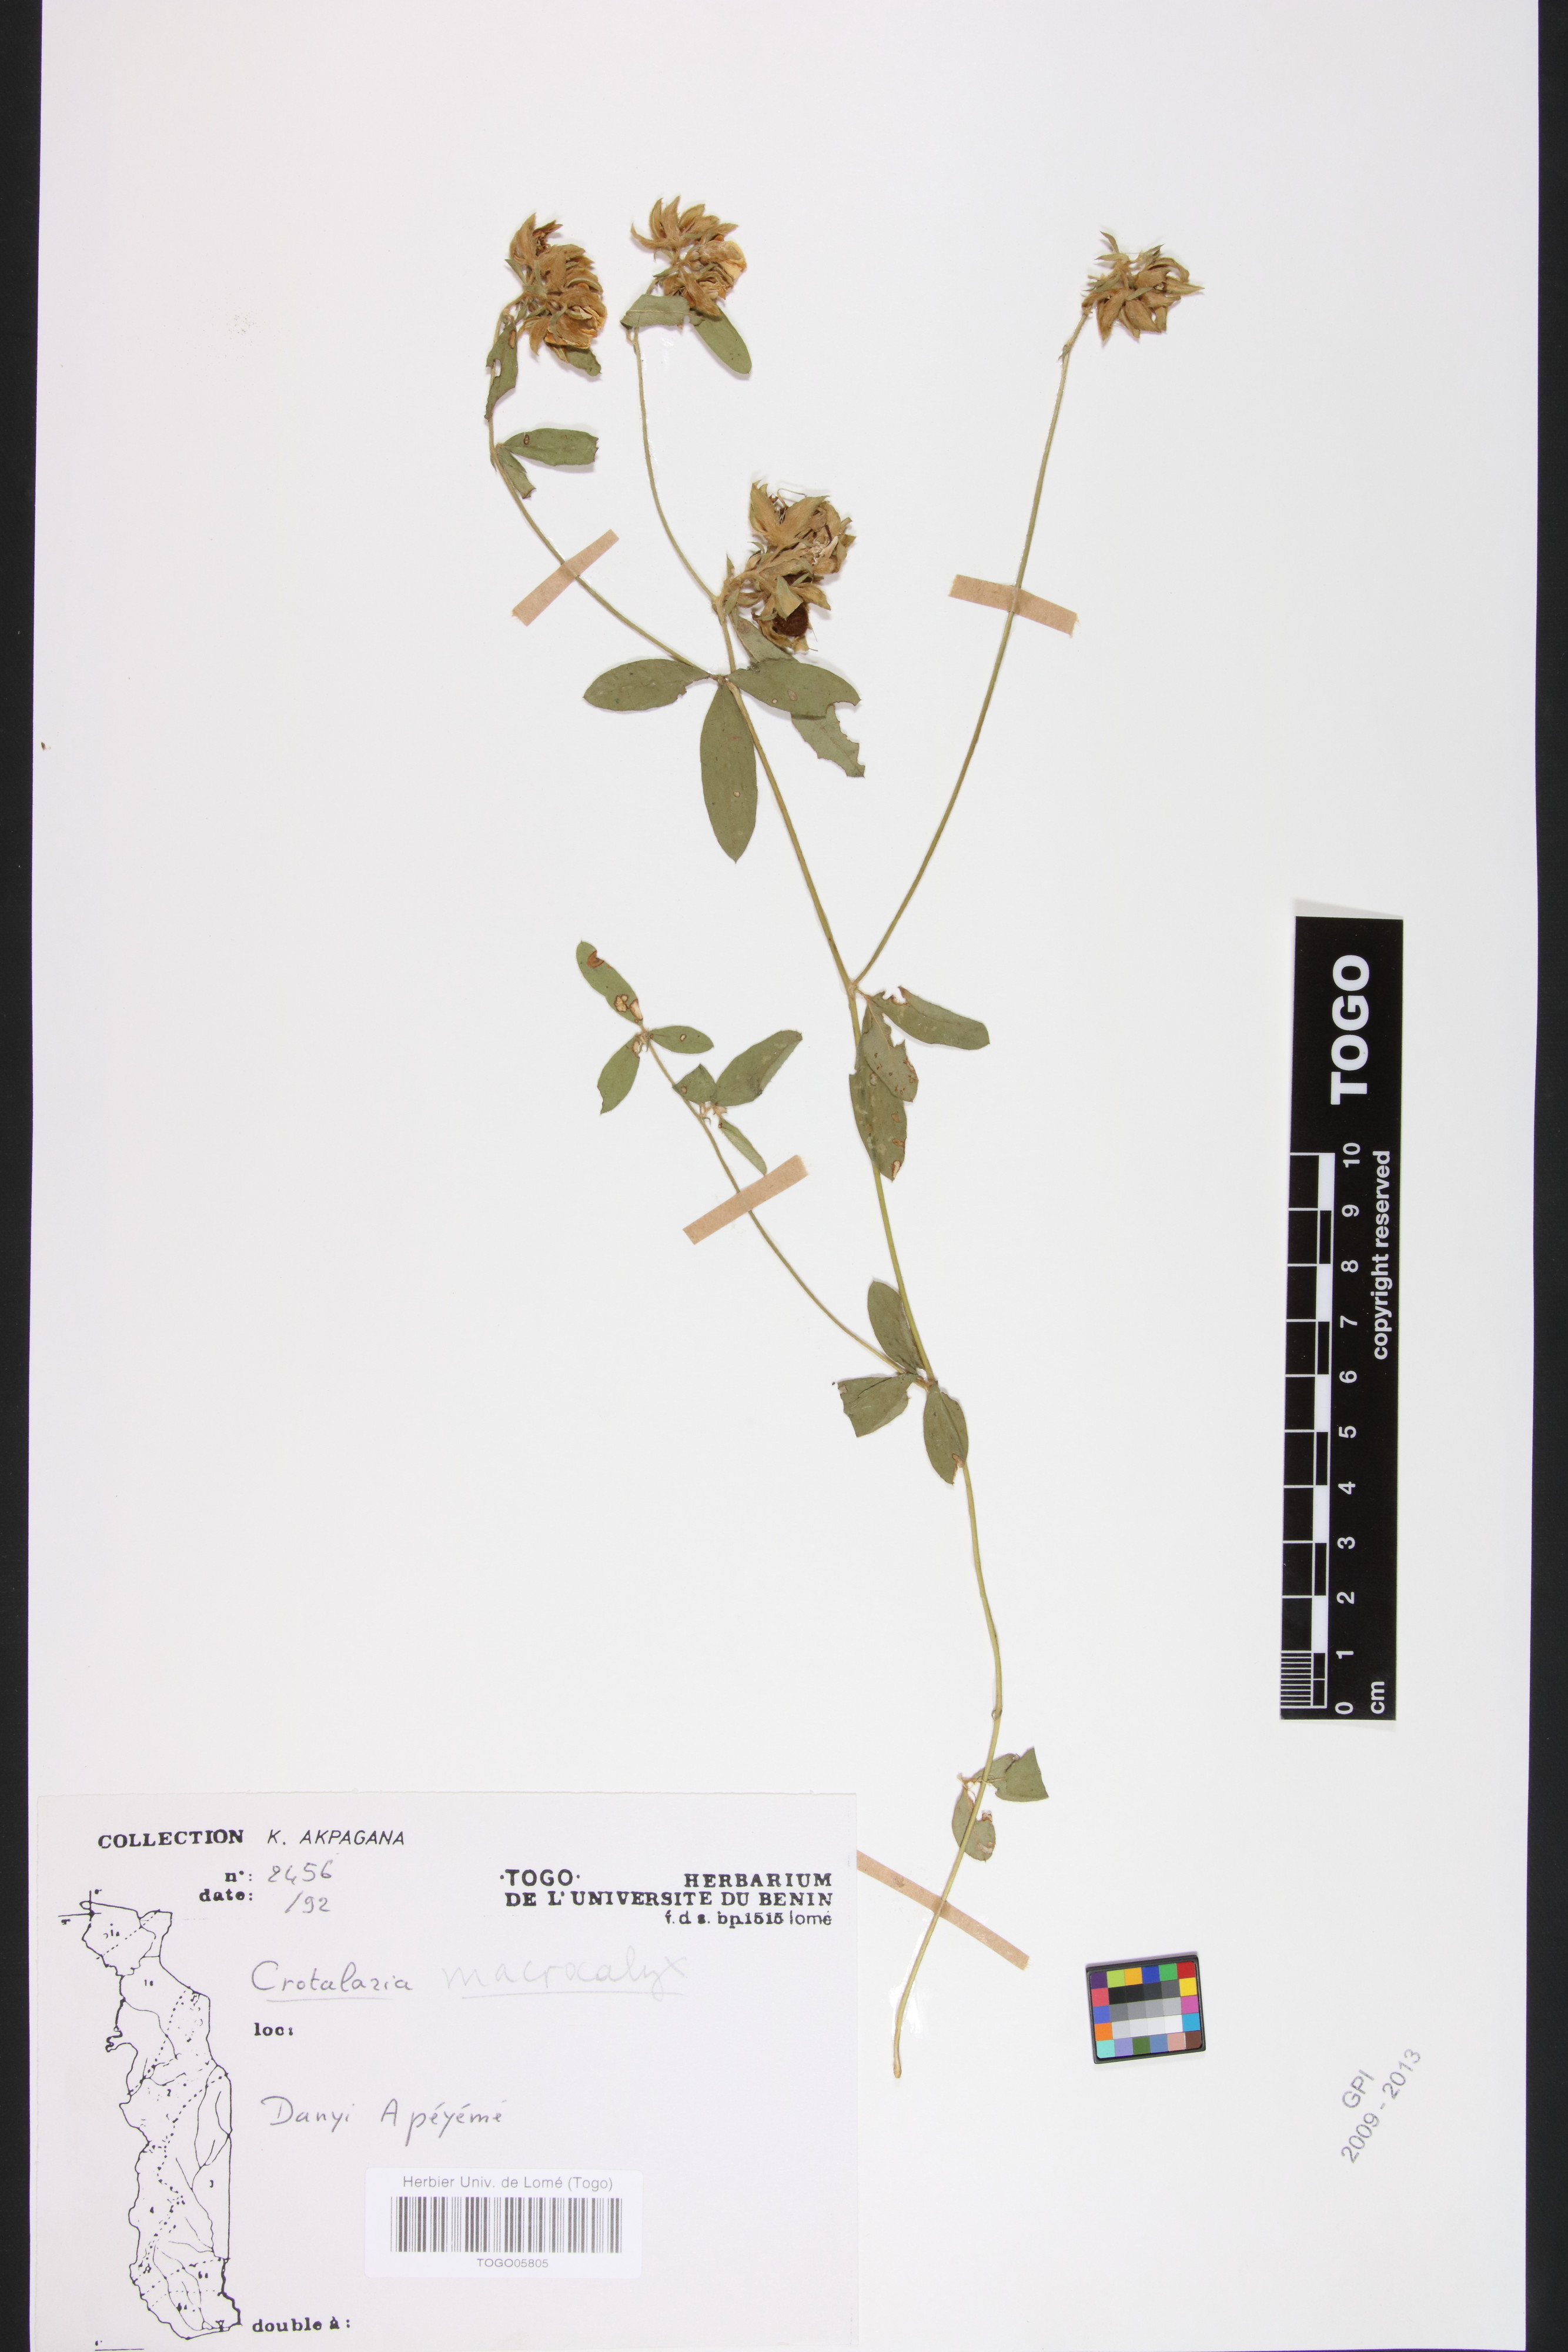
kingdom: Plantae
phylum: Tracheophyta
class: Magnoliopsida
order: Fabales
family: Fabaceae
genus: Crotalaria
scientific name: Crotalaria macrocalyx
